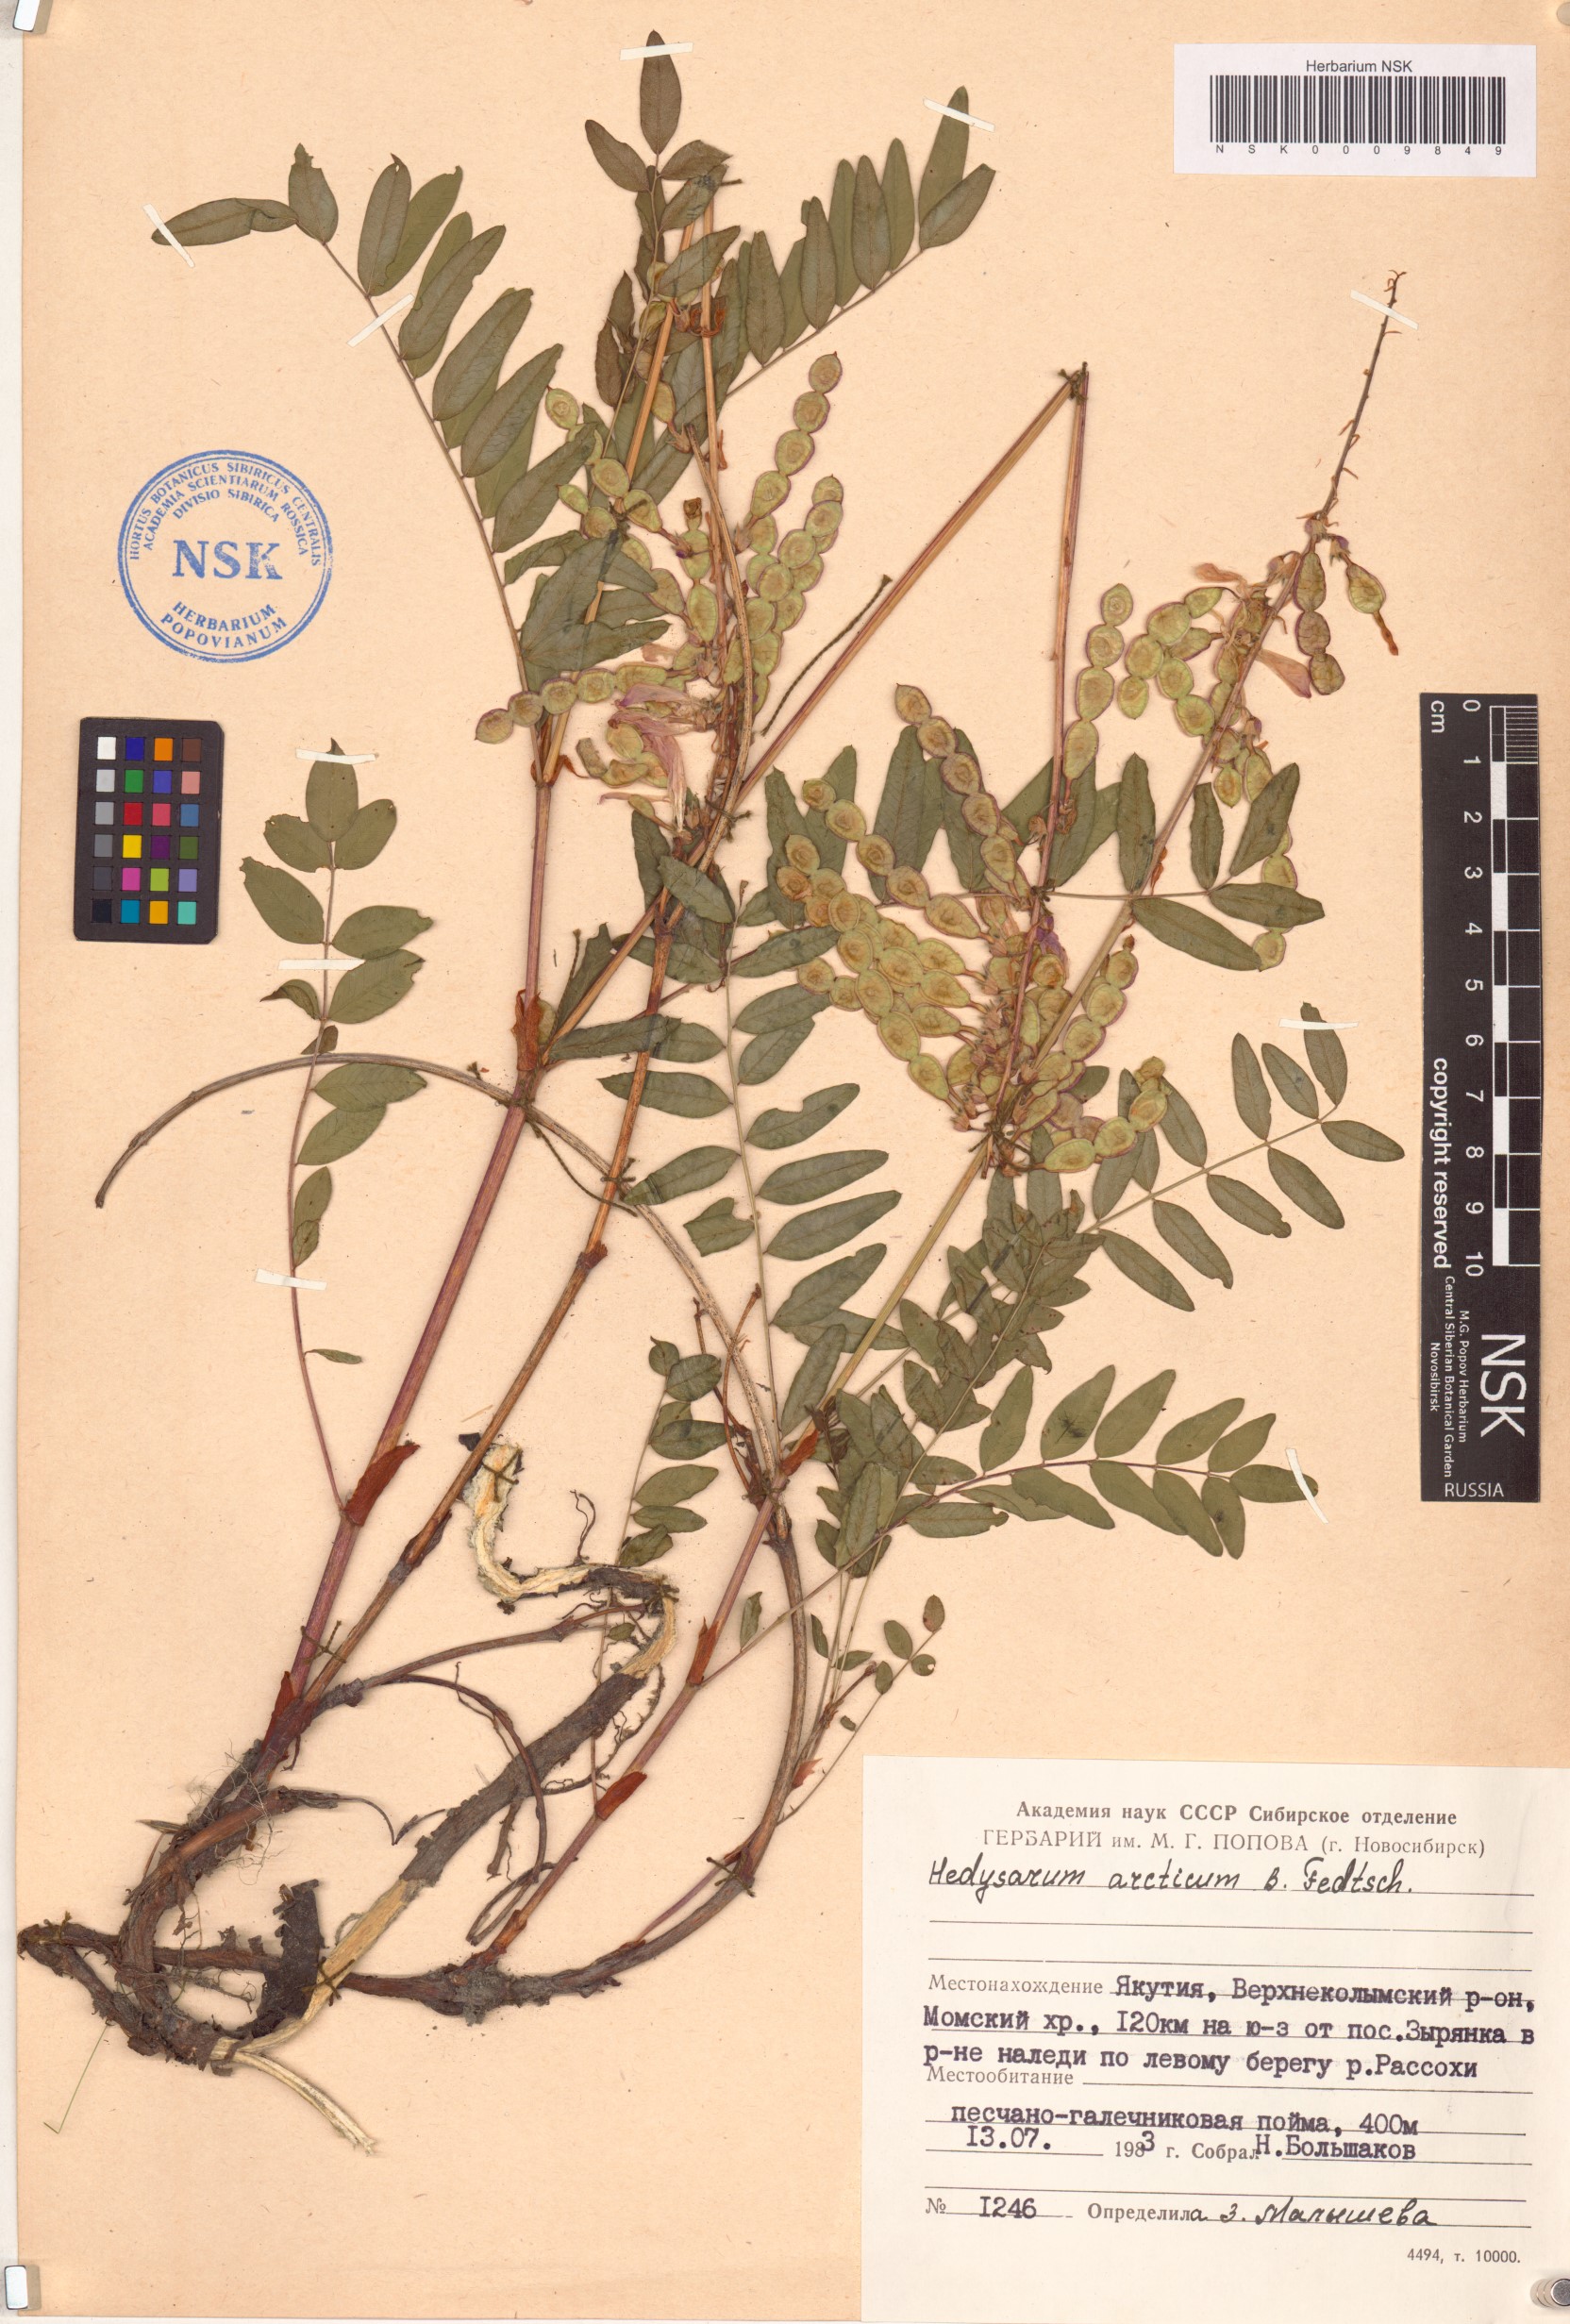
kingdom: Plantae
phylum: Tracheophyta
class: Magnoliopsida
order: Fabales
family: Fabaceae
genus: Hedysarum
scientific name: Hedysarum hedysaroides
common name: Alpine french-honeysuckle
